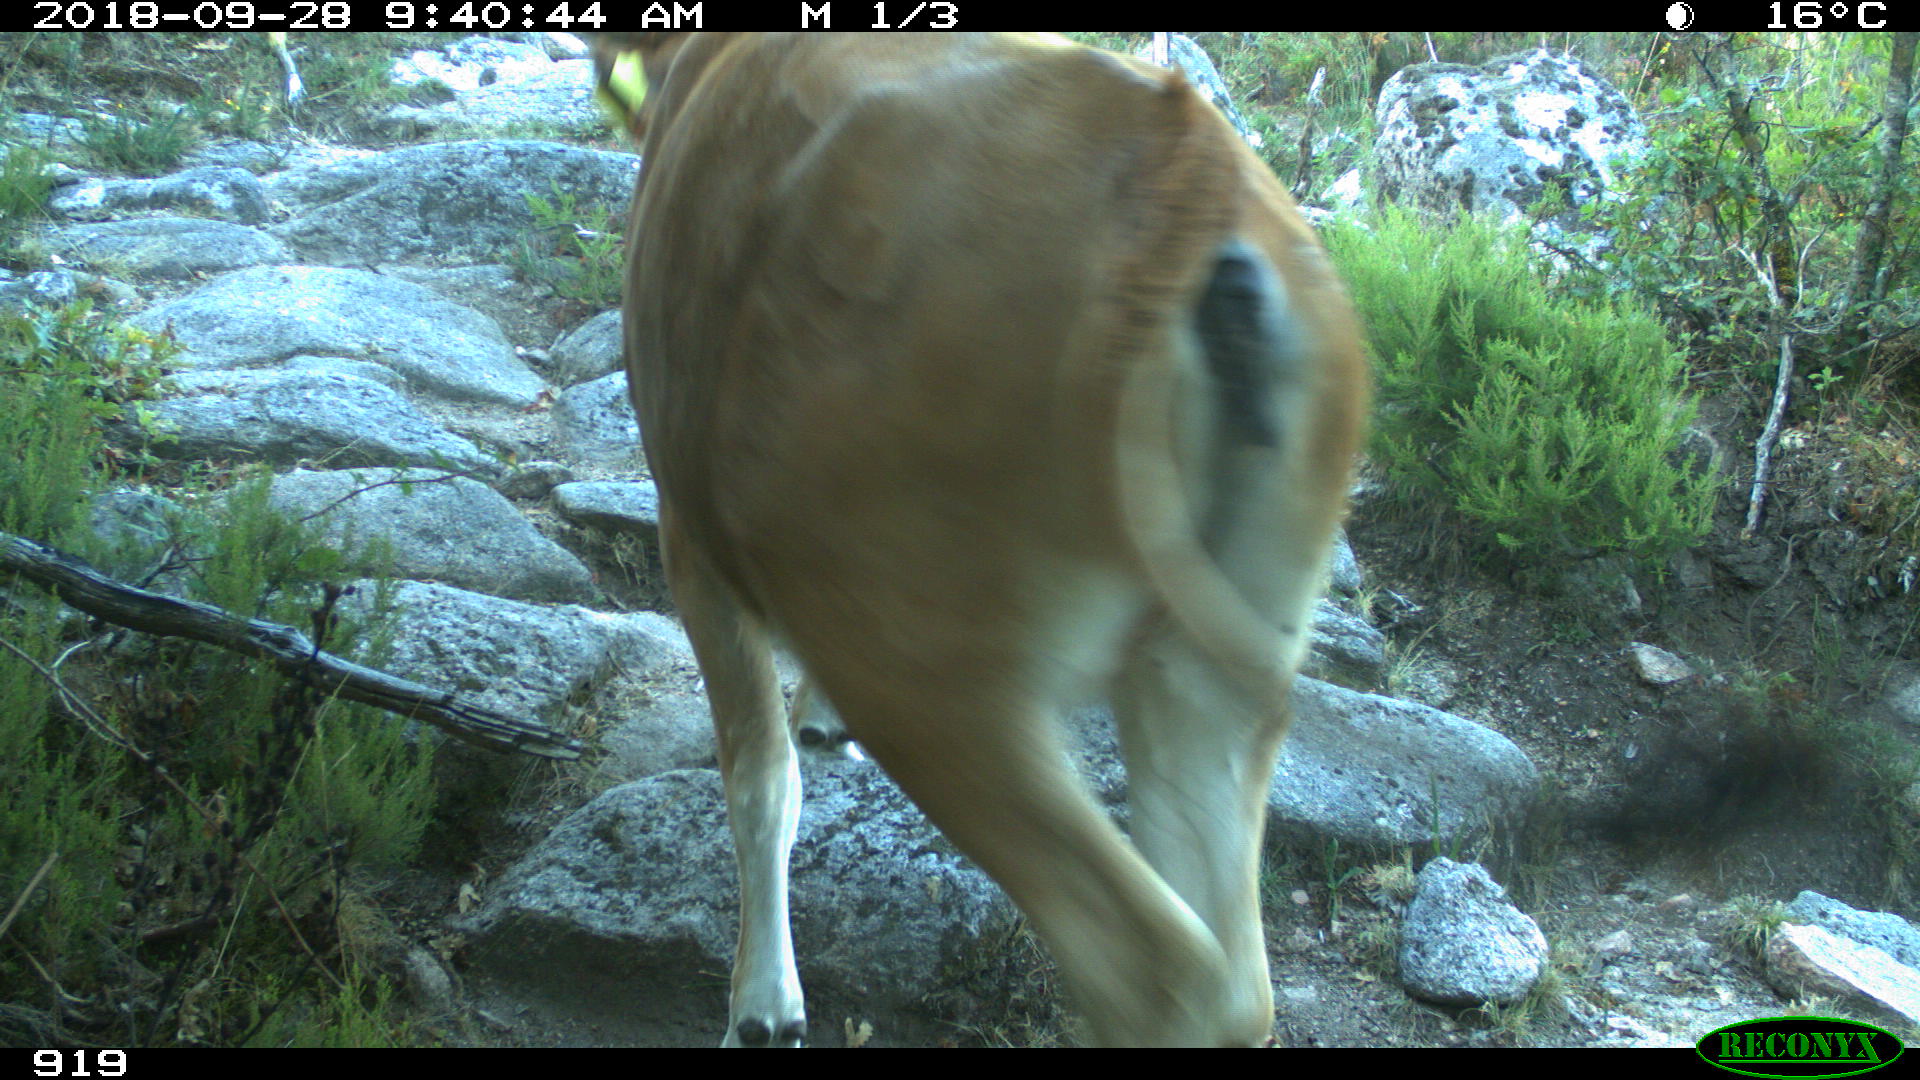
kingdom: Animalia
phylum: Chordata
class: Mammalia
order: Artiodactyla
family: Bovidae
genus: Bos
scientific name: Bos taurus
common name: Domesticated cattle
